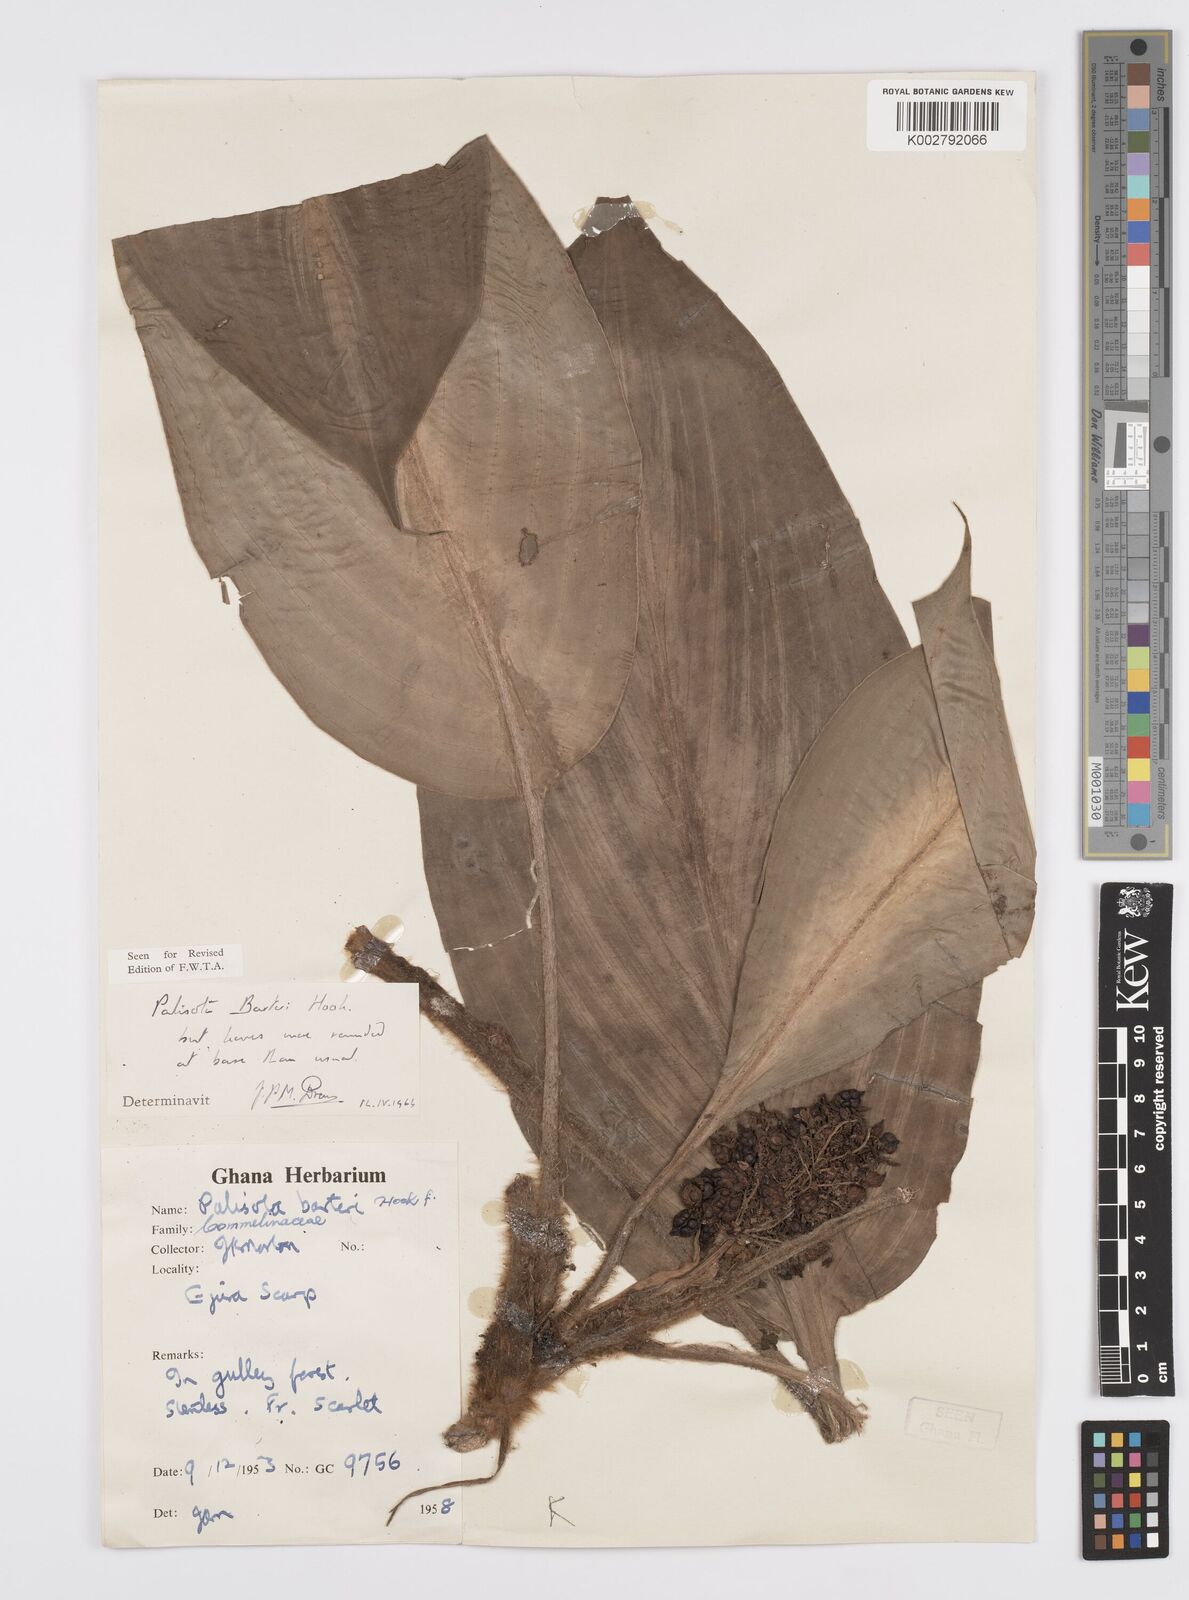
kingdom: Plantae
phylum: Tracheophyta
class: Liliopsida
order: Commelinales
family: Commelinaceae
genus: Palisota
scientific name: Palisota barteri
